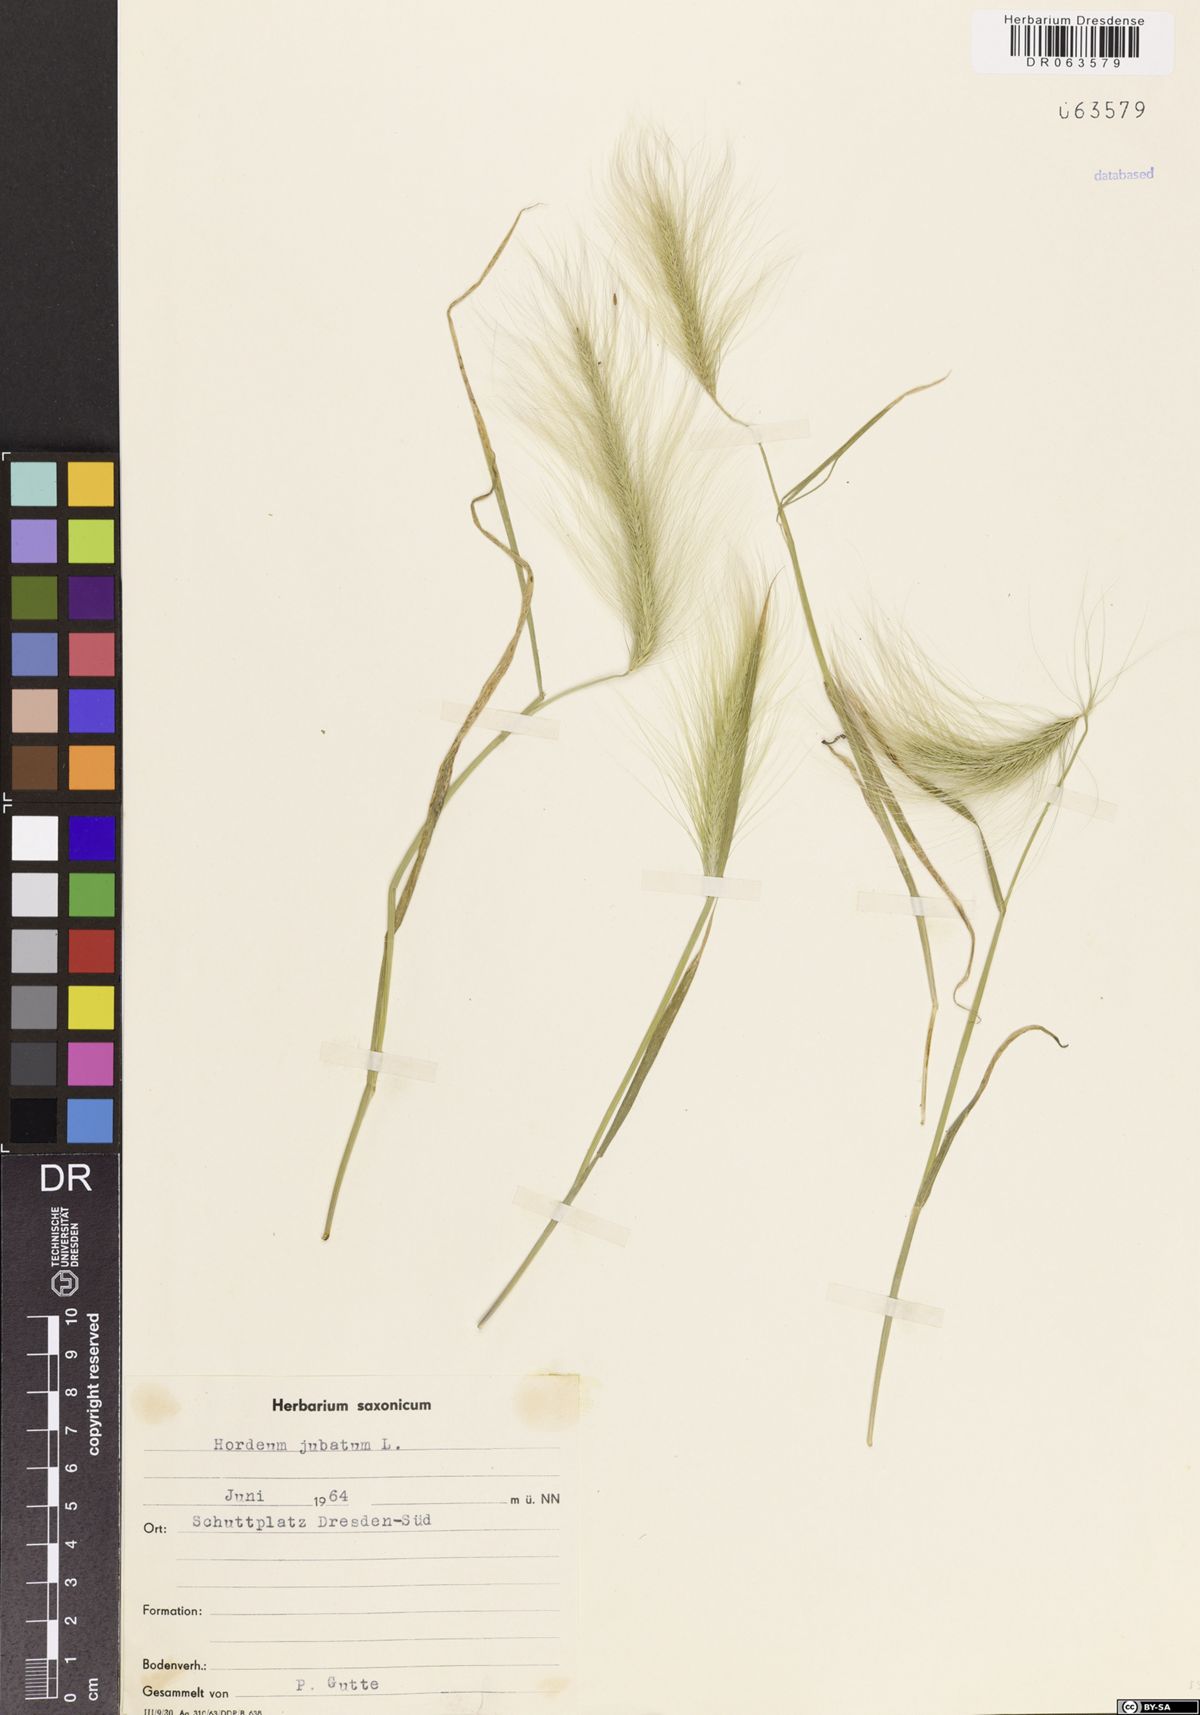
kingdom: Plantae
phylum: Tracheophyta
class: Liliopsida
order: Poales
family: Poaceae
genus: Hordeum
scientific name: Hordeum jubatum
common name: Foxtail barley
